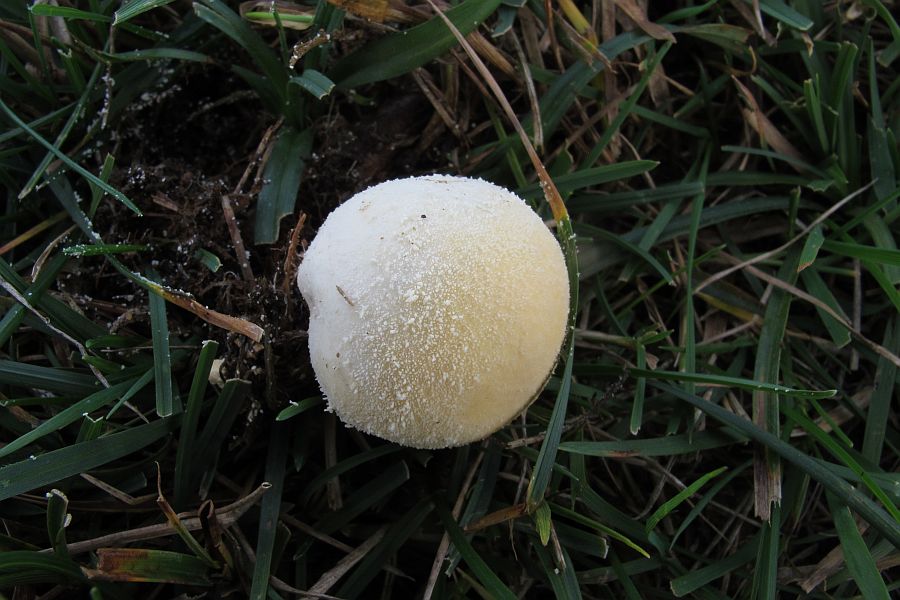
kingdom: Fungi
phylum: Basidiomycota
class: Agaricomycetes
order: Agaricales
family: Lycoperdaceae
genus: Lycoperdon
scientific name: Lycoperdon pratense
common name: flad støvbold
